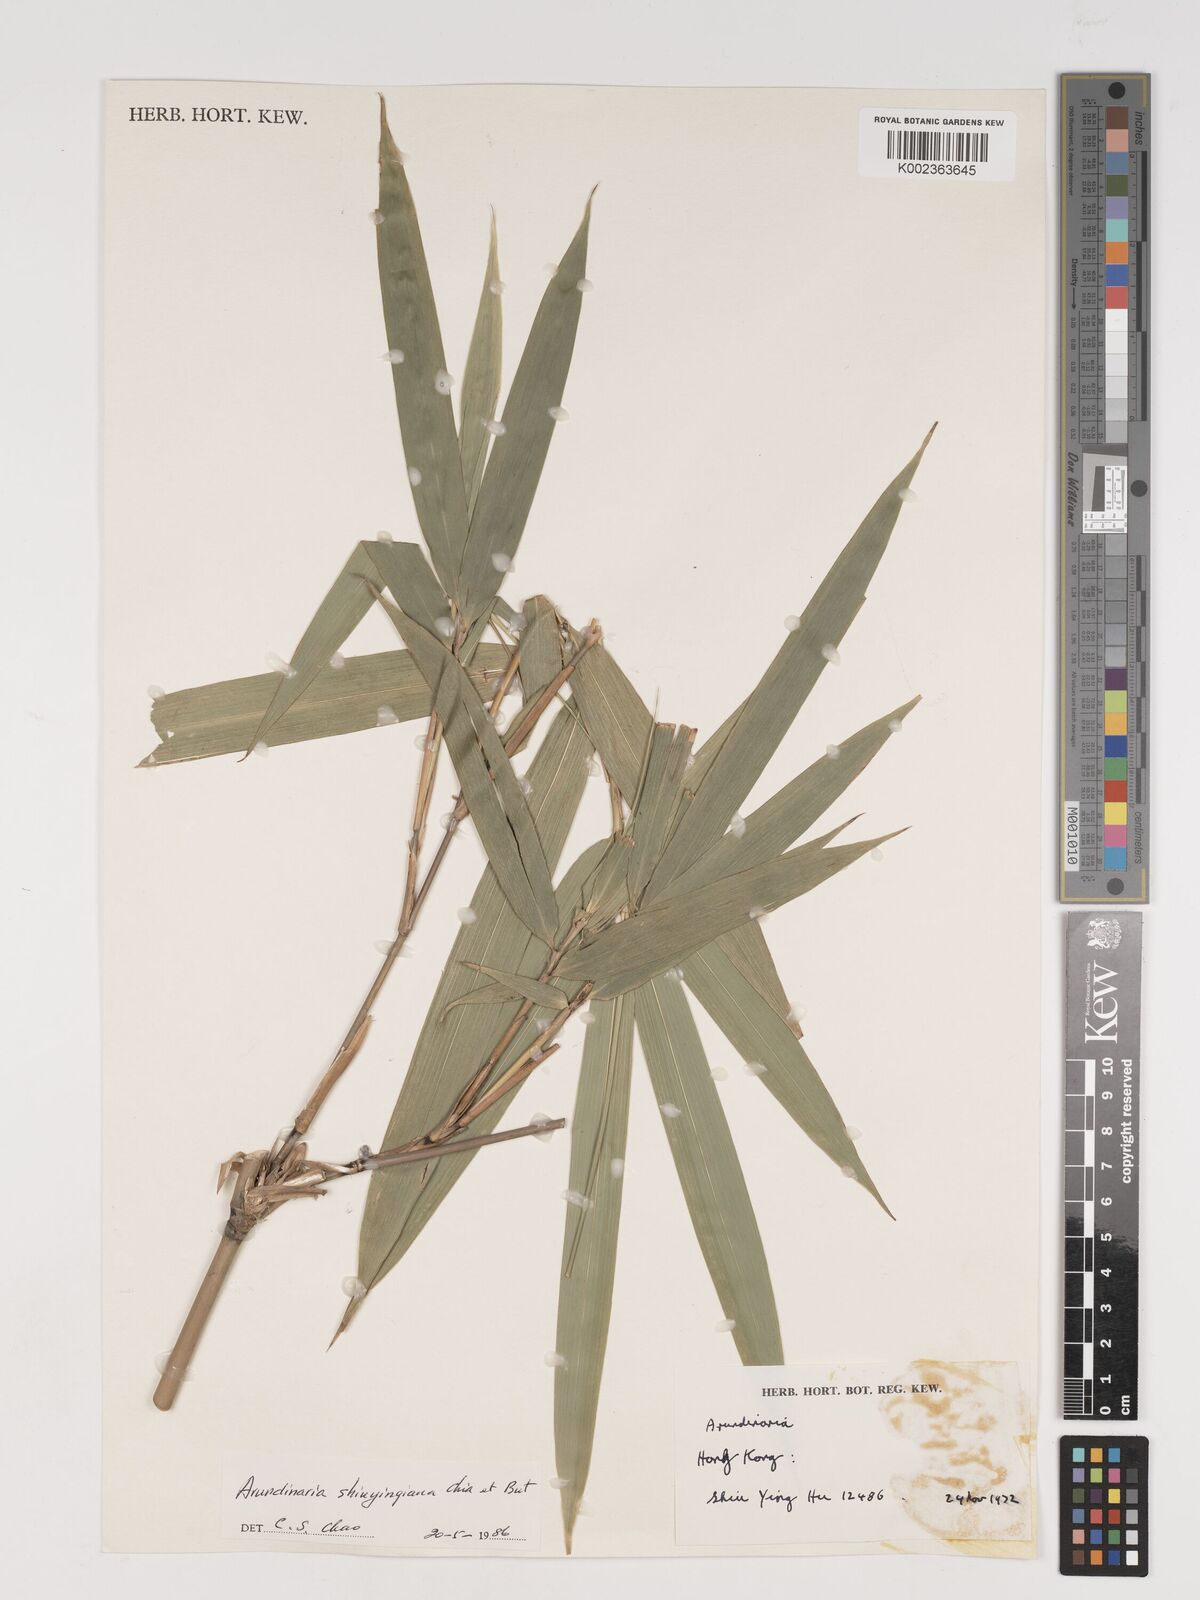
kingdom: Plantae
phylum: Tracheophyta
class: Liliopsida
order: Poales
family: Poaceae
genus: Oligostachyum
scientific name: Oligostachyum shiuyingianum
